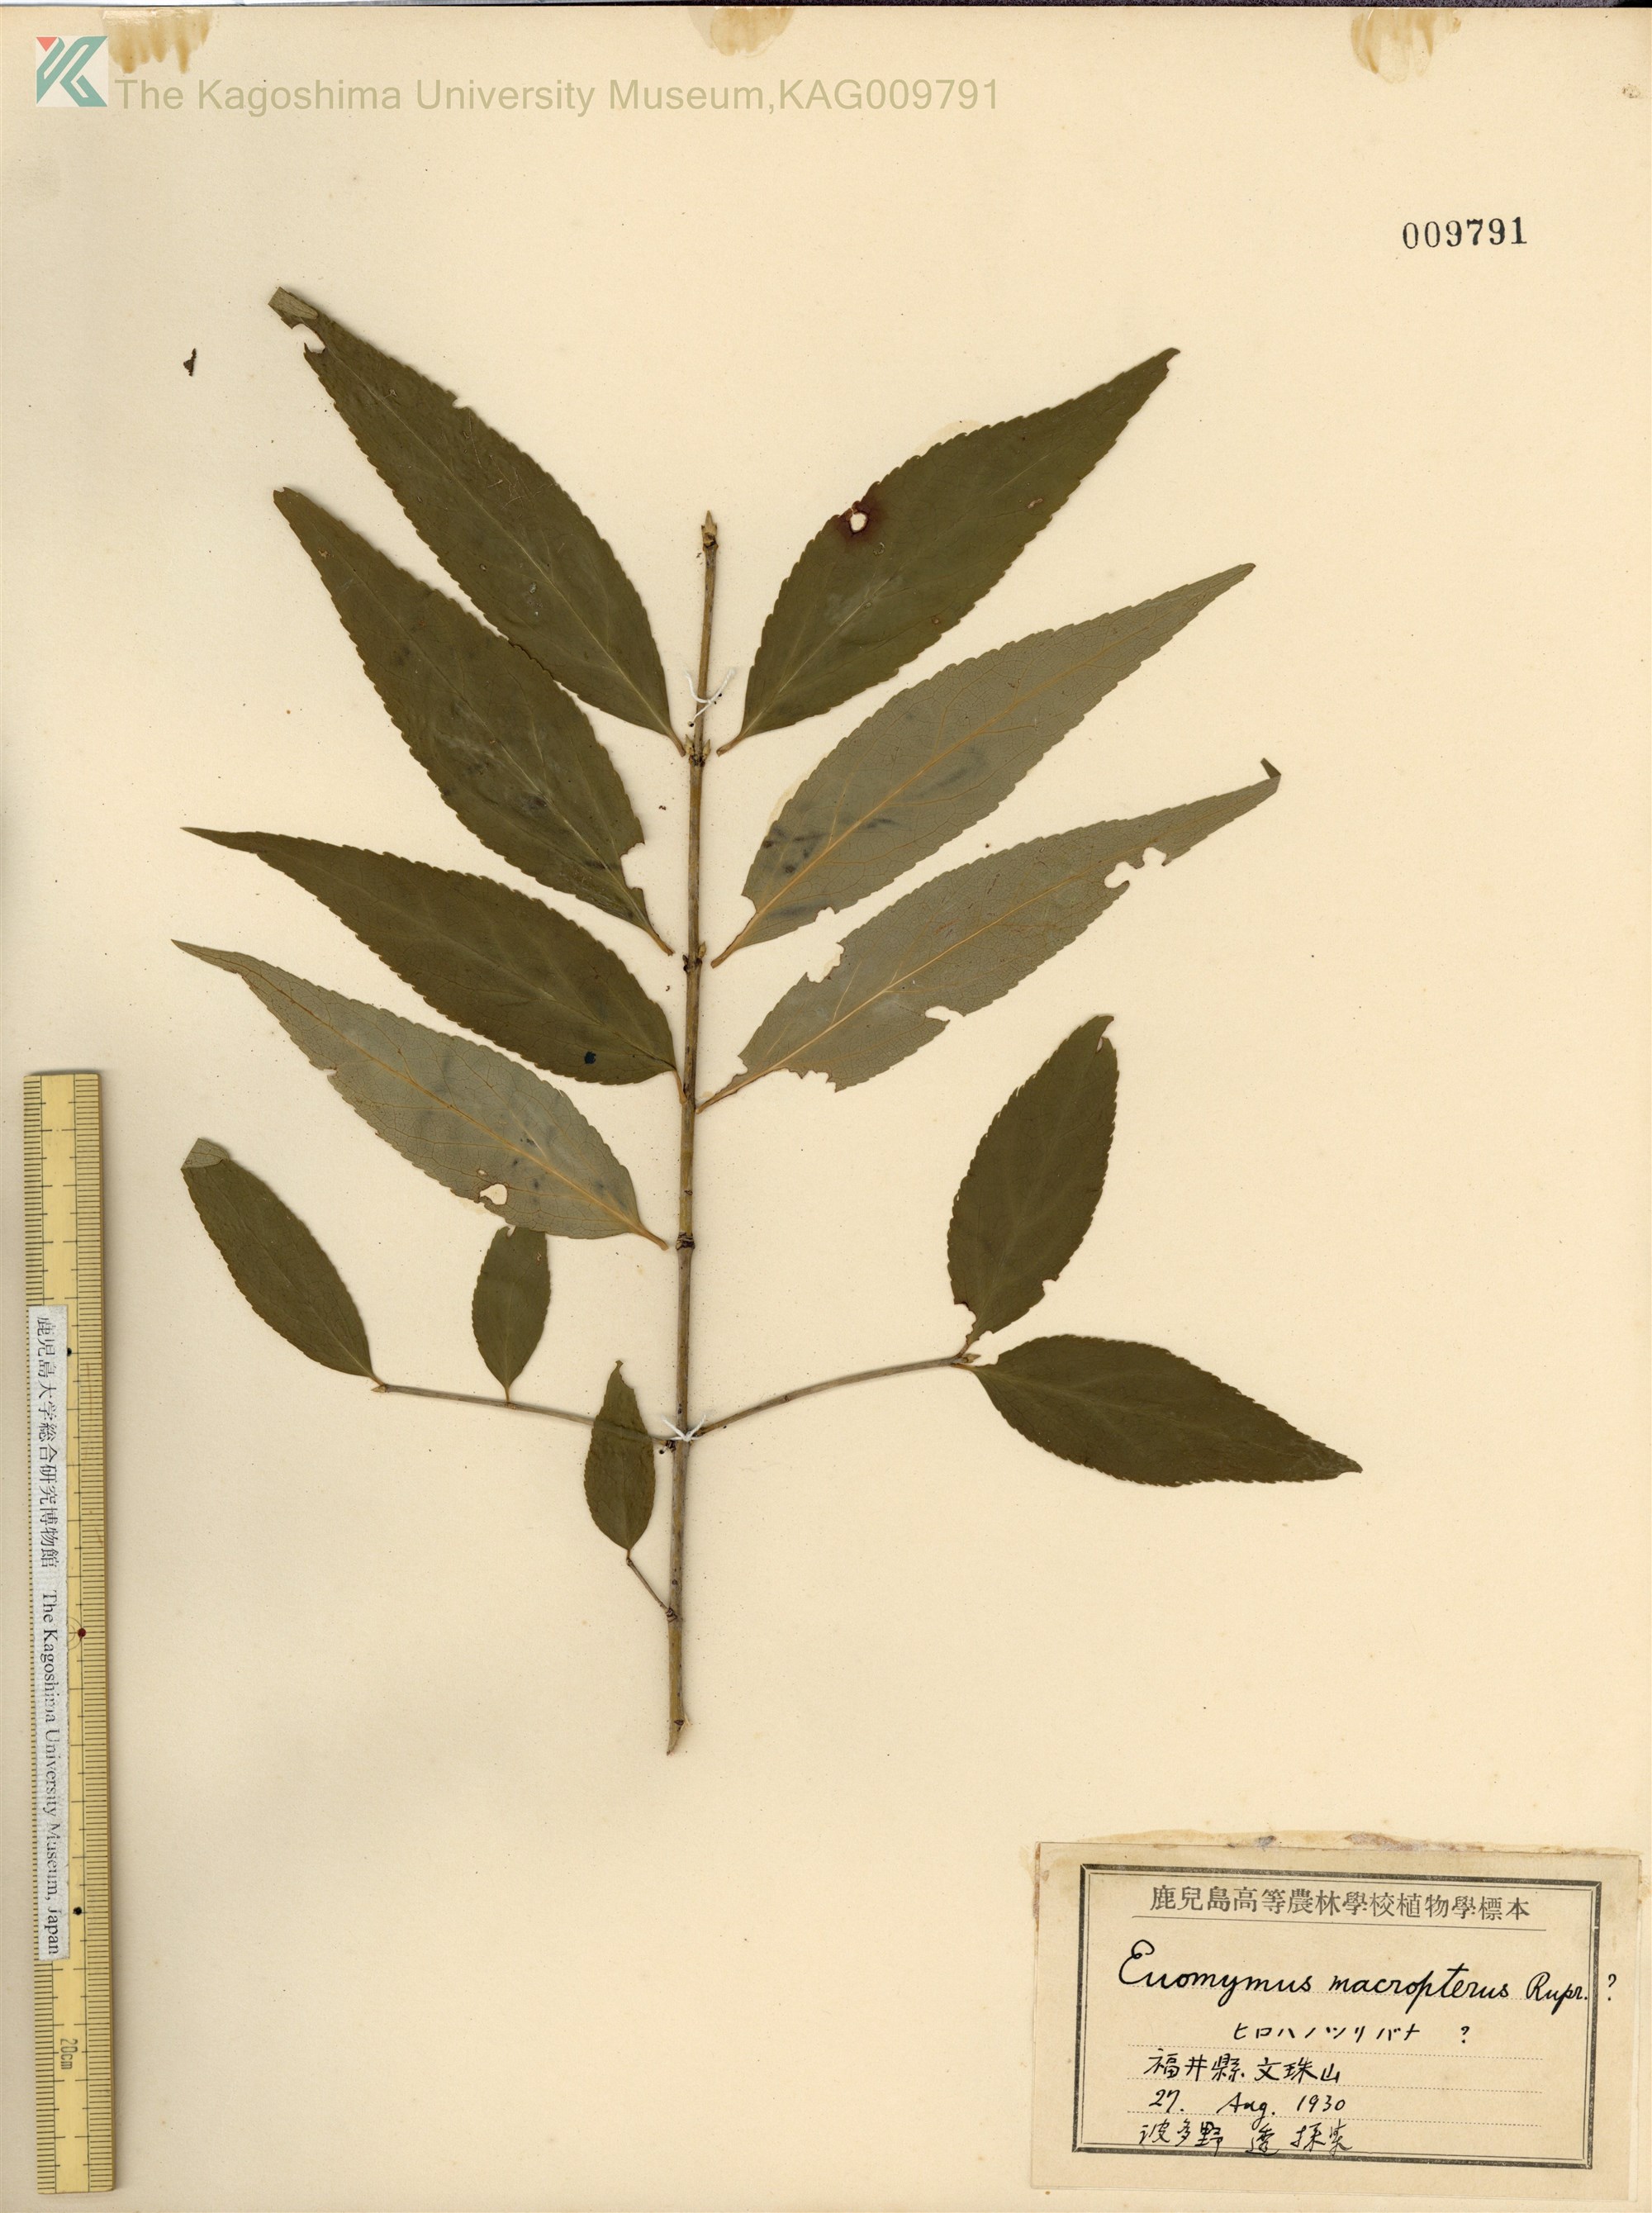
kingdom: Plantae
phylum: Tracheophyta
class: Magnoliopsida
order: Celastrales
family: Celastraceae
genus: Euonymus
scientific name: Euonymus oxyphyllus
